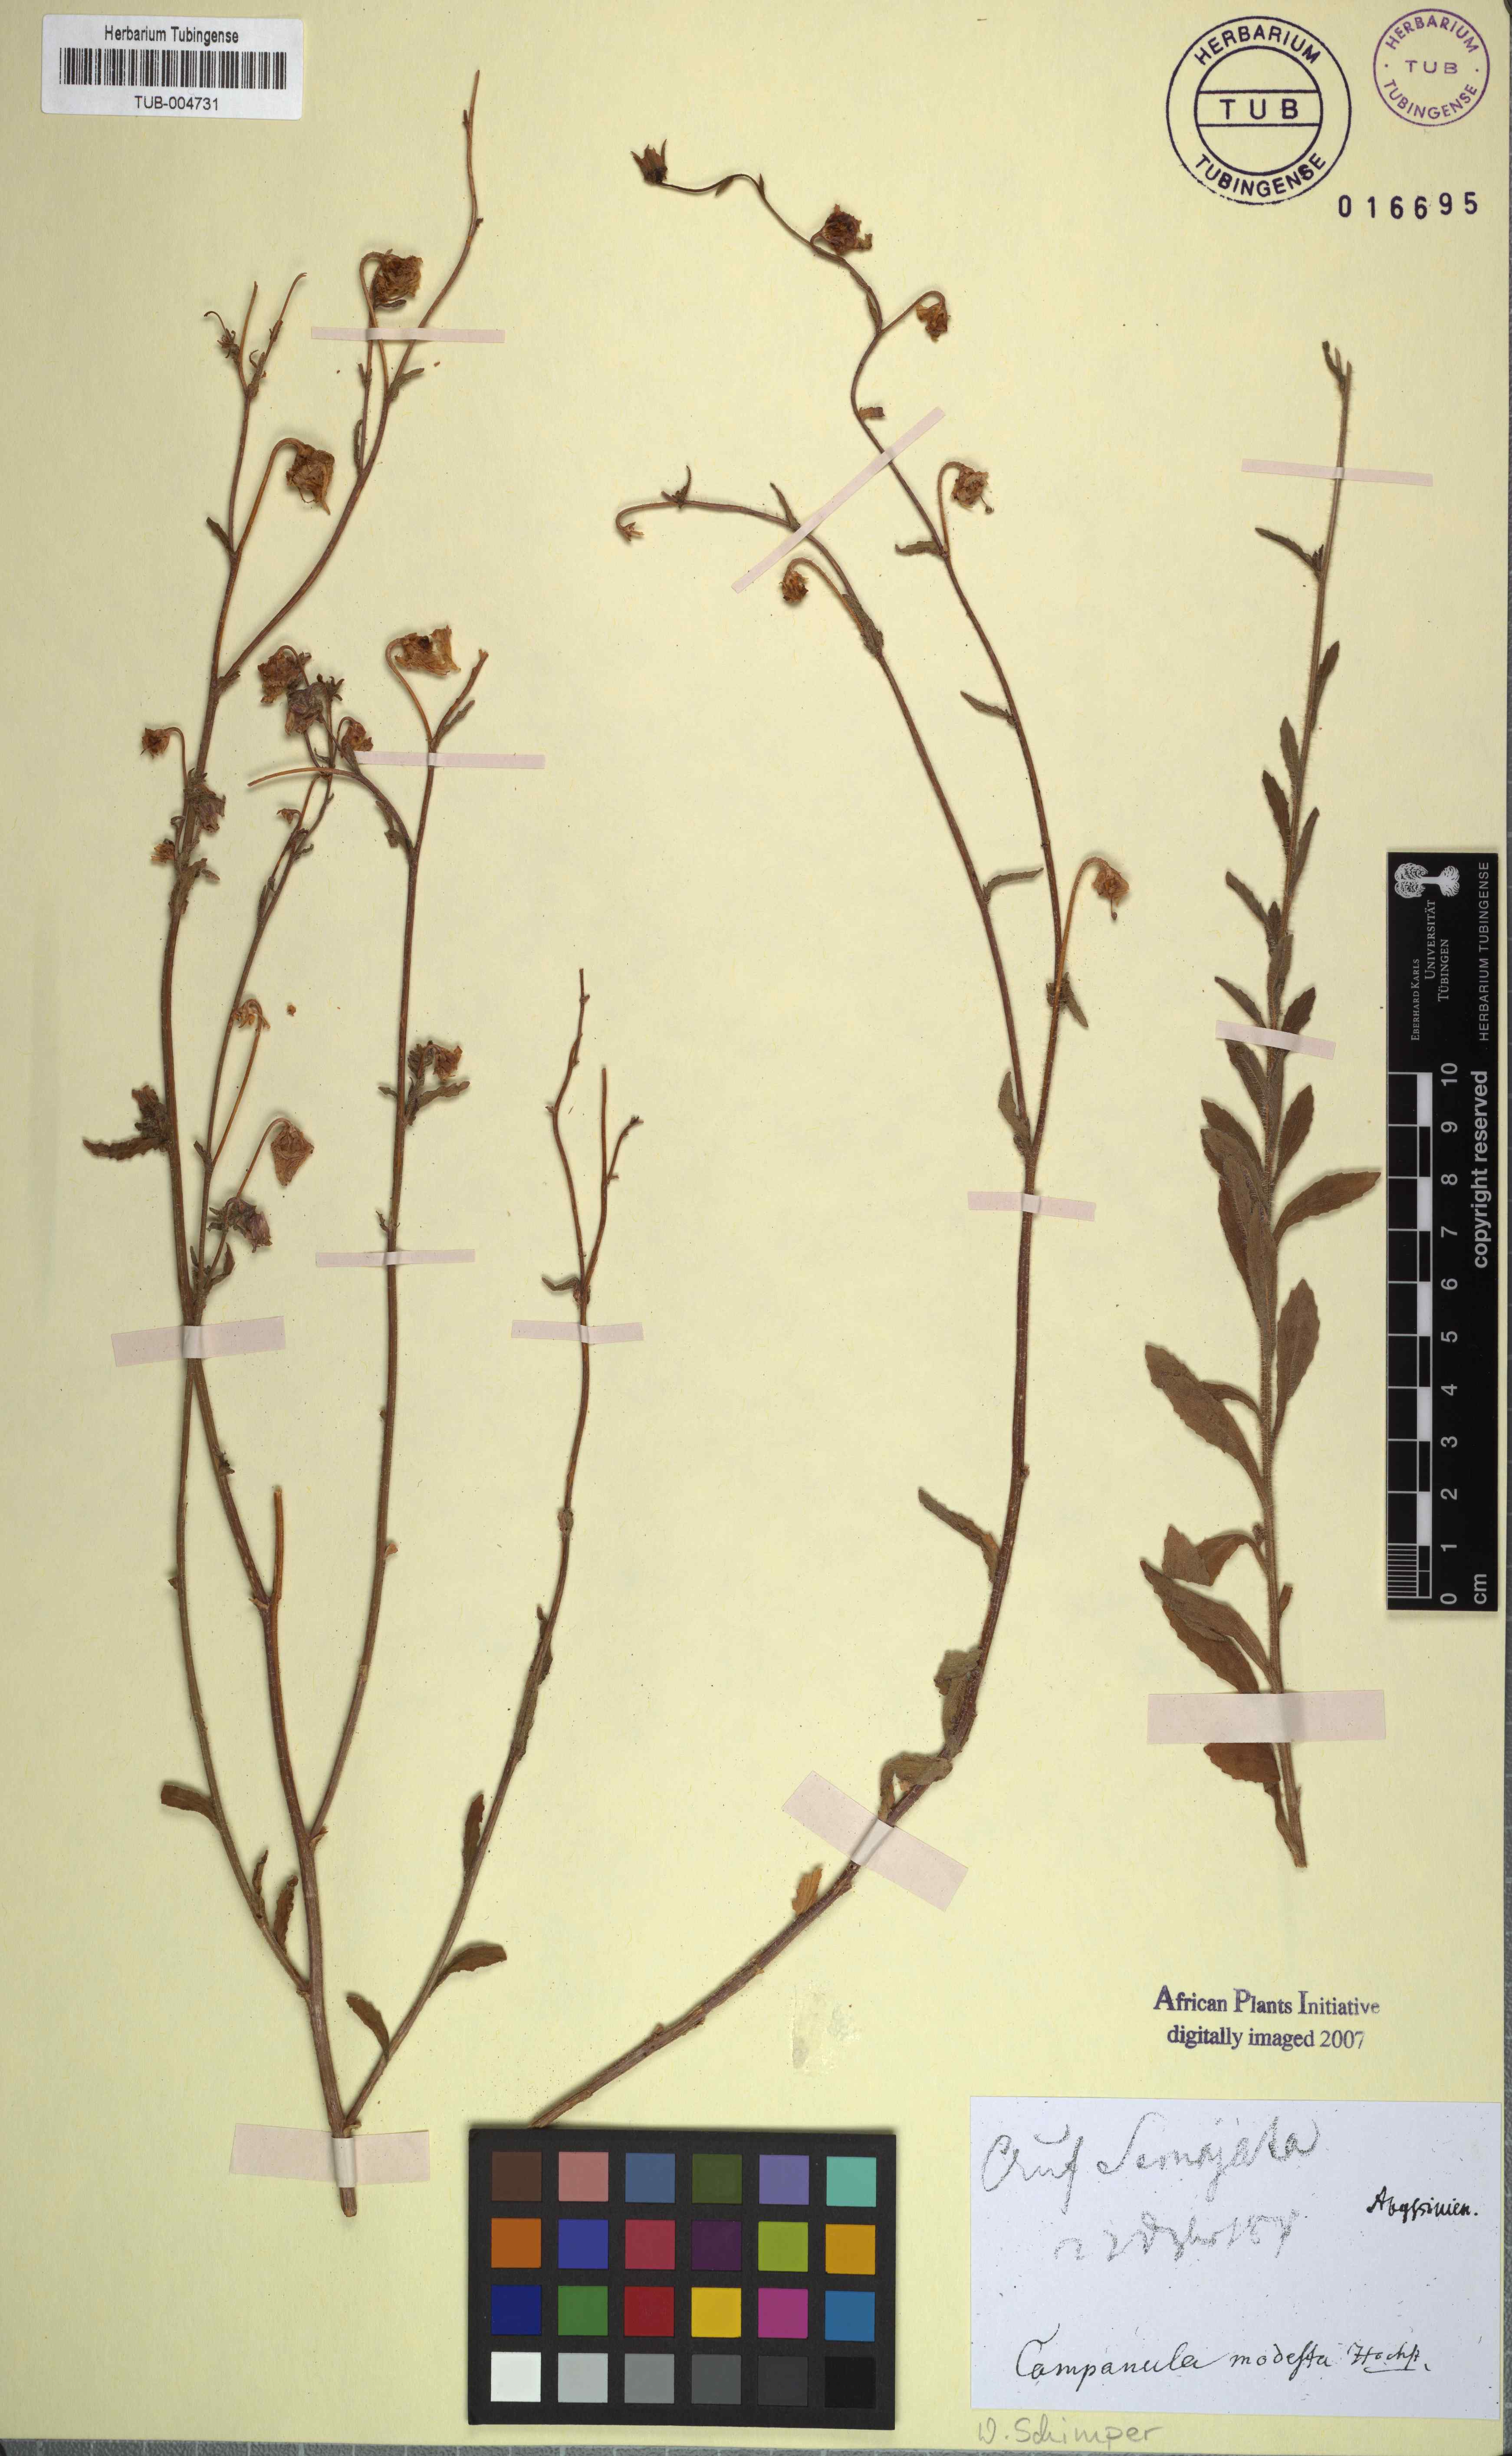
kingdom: Plantae
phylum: Tracheophyta
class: Magnoliopsida
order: Asterales
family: Campanulaceae
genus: Campanula
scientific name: Campanula
